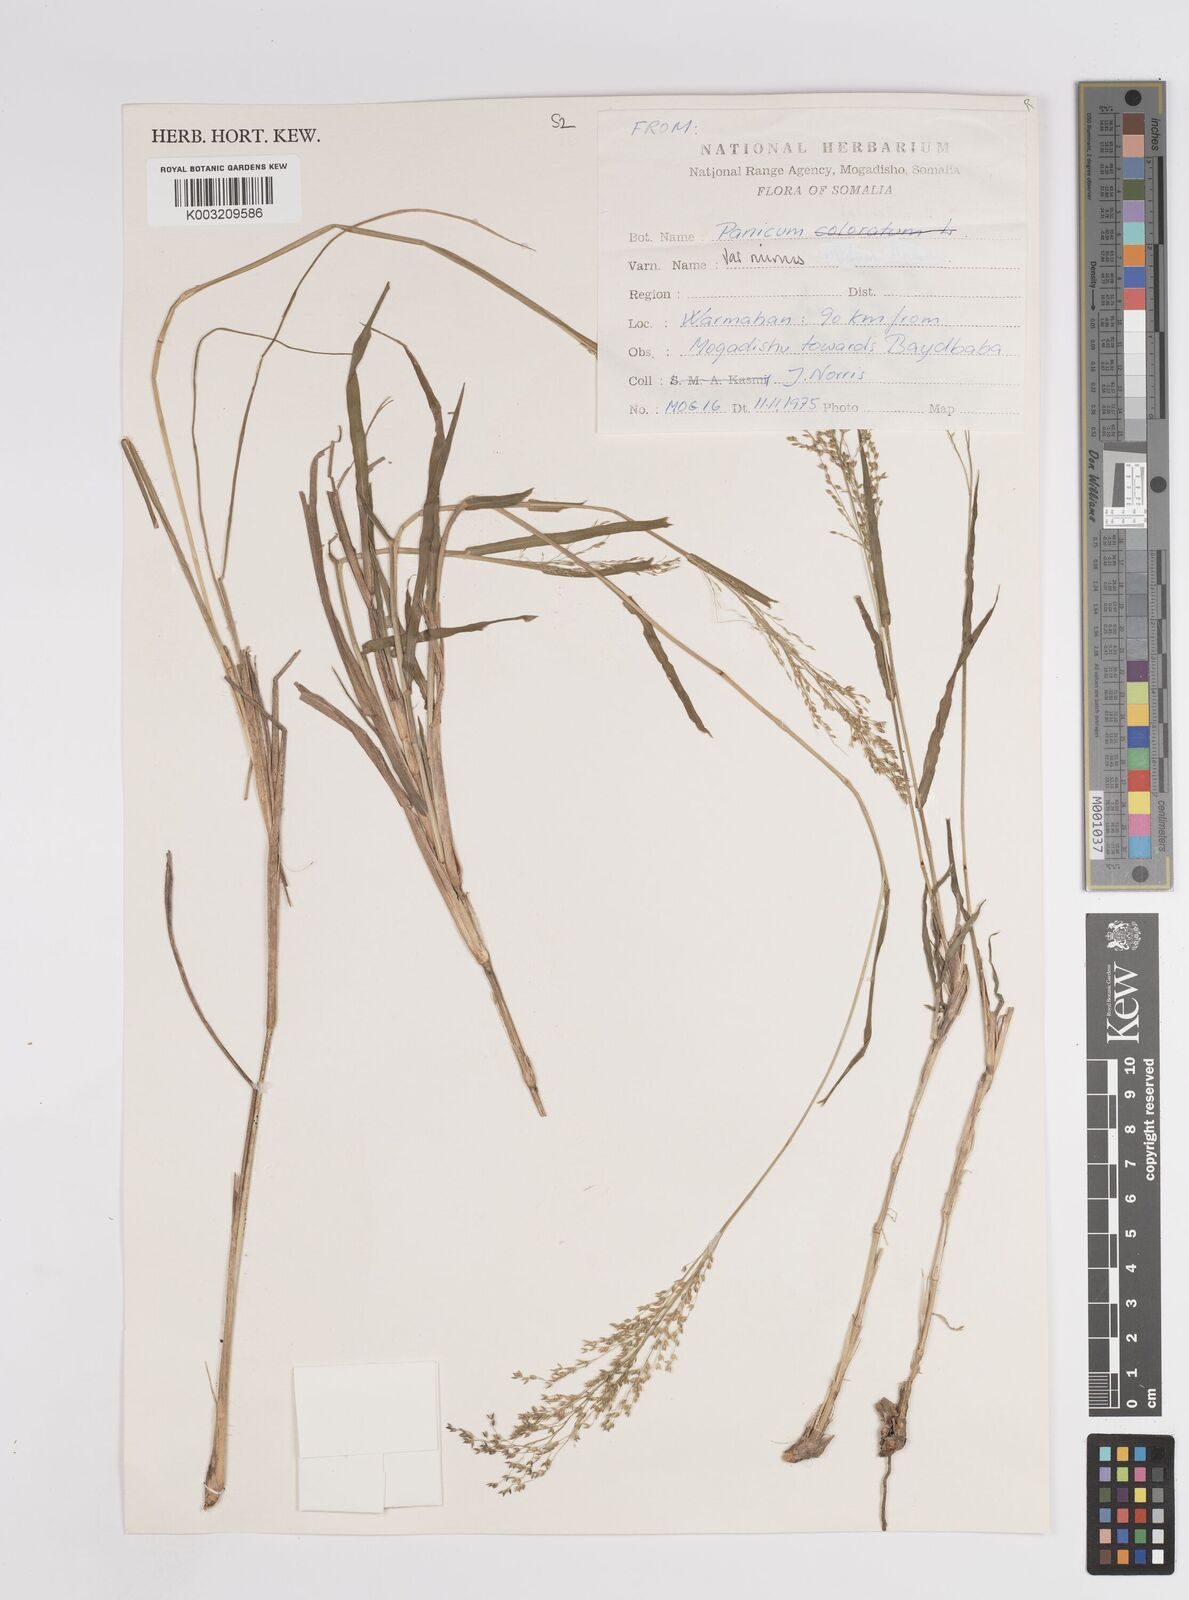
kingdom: Plantae
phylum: Tracheophyta
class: Liliopsida
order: Poales
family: Poaceae
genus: Panicum
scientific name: Panicum coloratum
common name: Kleingrass
